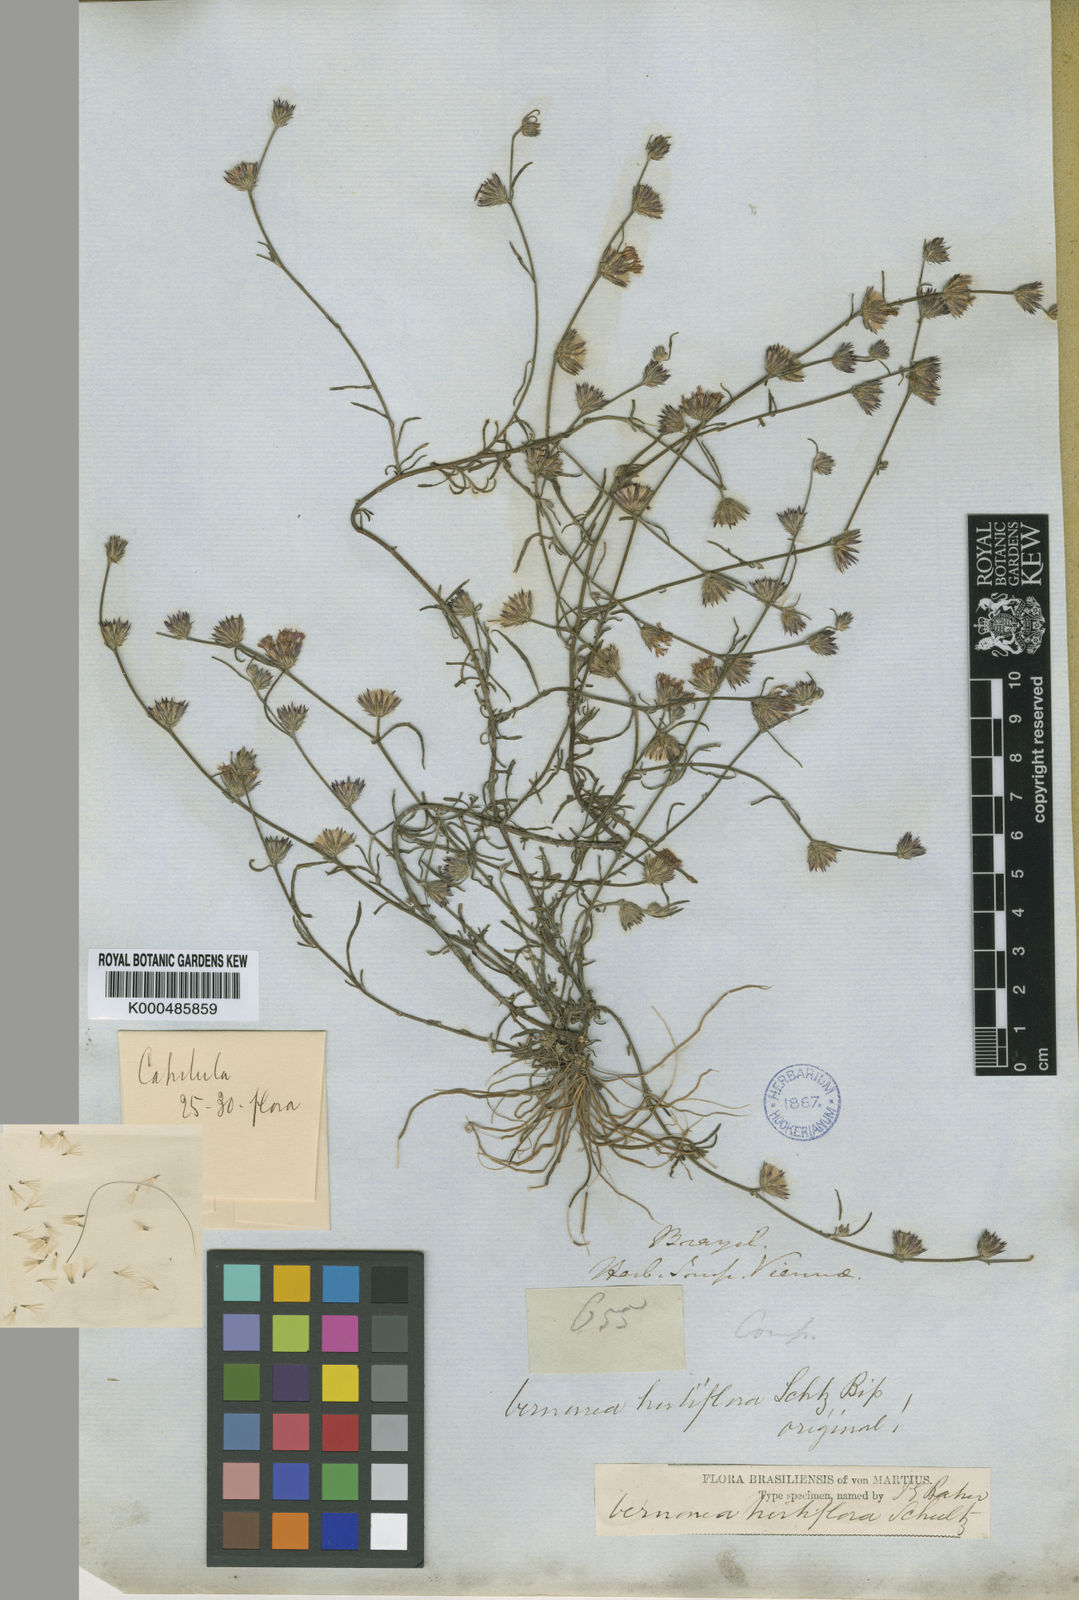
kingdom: Plantae
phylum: Tracheophyta
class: Magnoliopsida
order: Asterales
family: Asteraceae
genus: Lepidaploa
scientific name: Lepidaploa remotiflora
